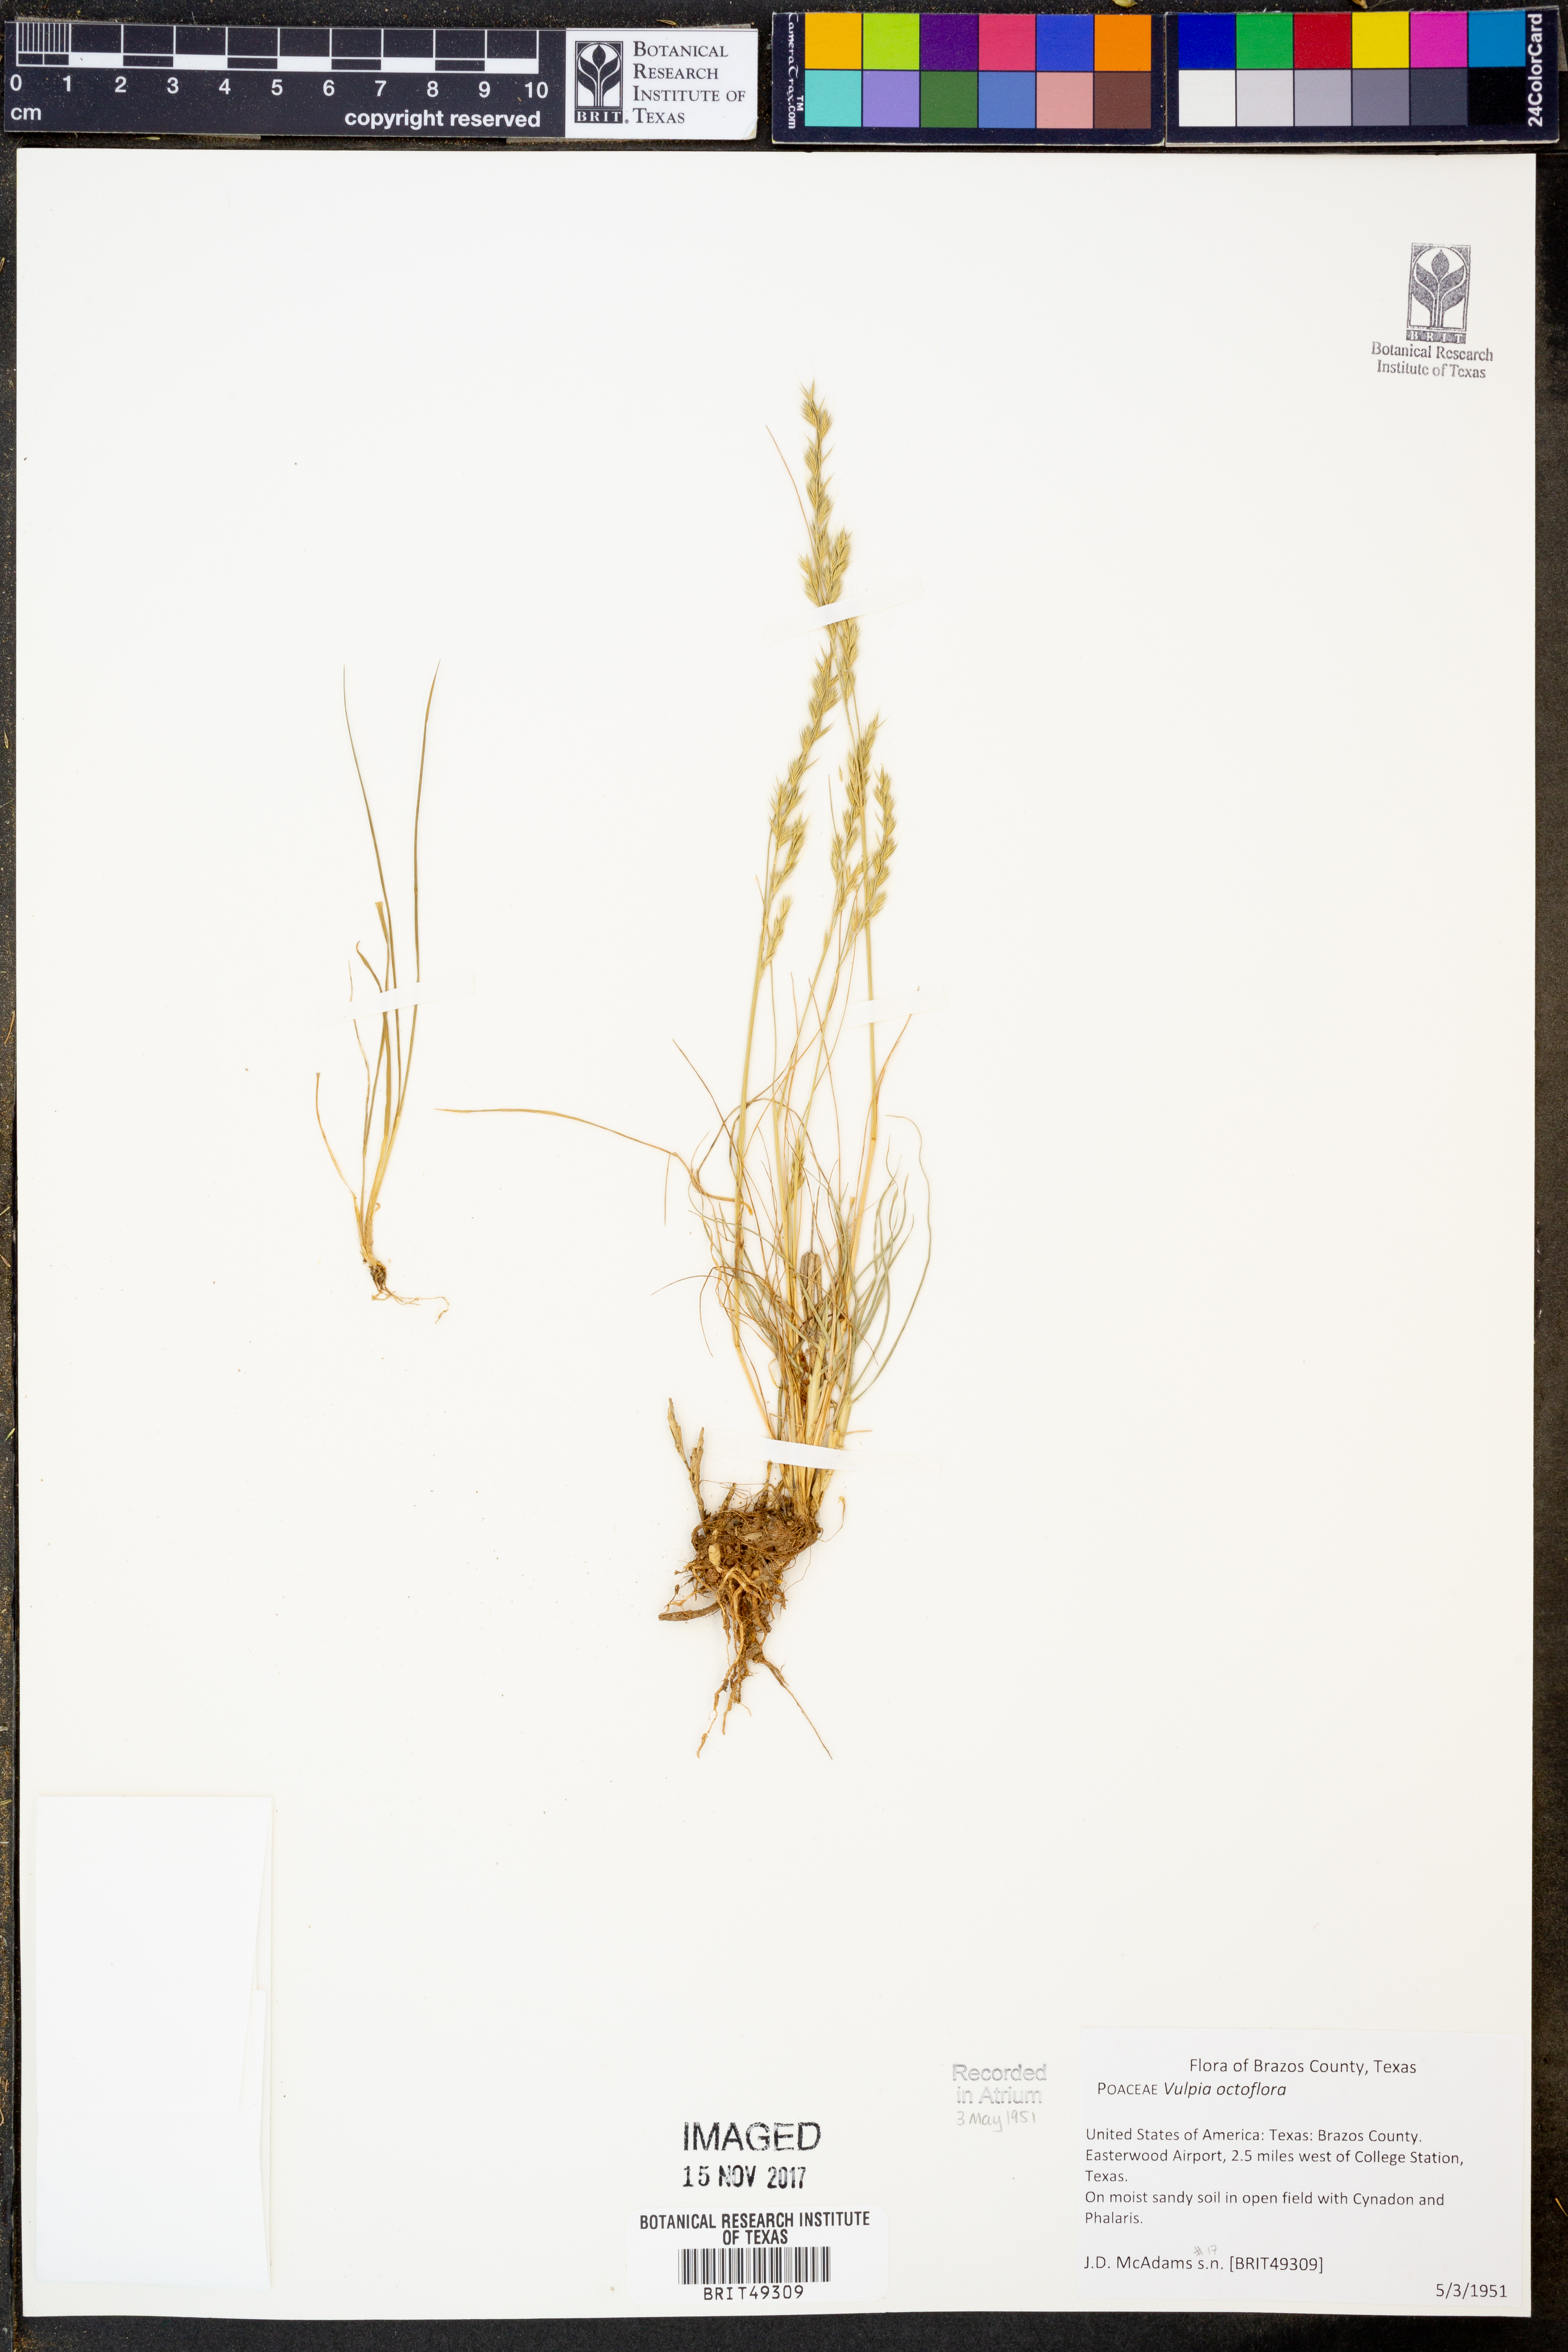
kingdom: Plantae
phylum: Tracheophyta
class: Liliopsida
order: Poales
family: Poaceae
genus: Festuca
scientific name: Festuca octoflora
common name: Sixweeks grass
